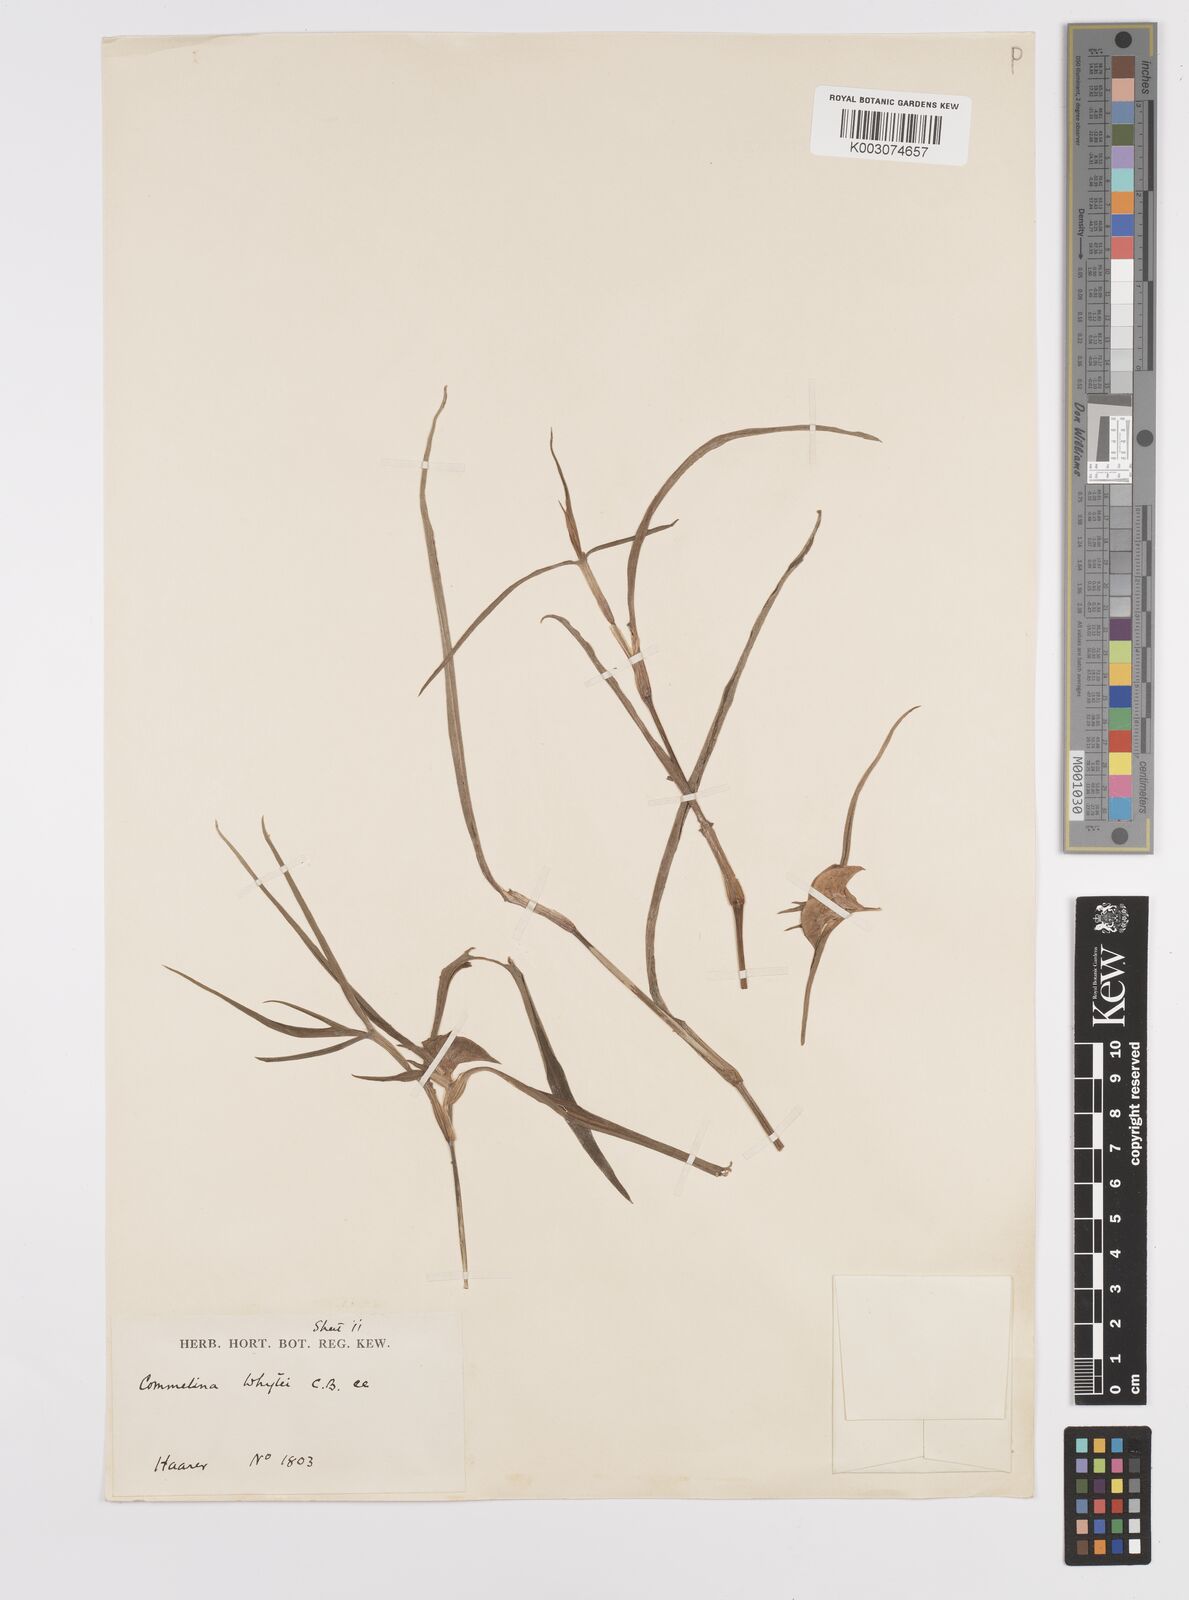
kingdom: Plantae
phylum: Tracheophyta
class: Liliopsida
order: Commelinales
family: Commelinaceae
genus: Commelina
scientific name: Commelina erecta
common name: Blousel blommetjie
